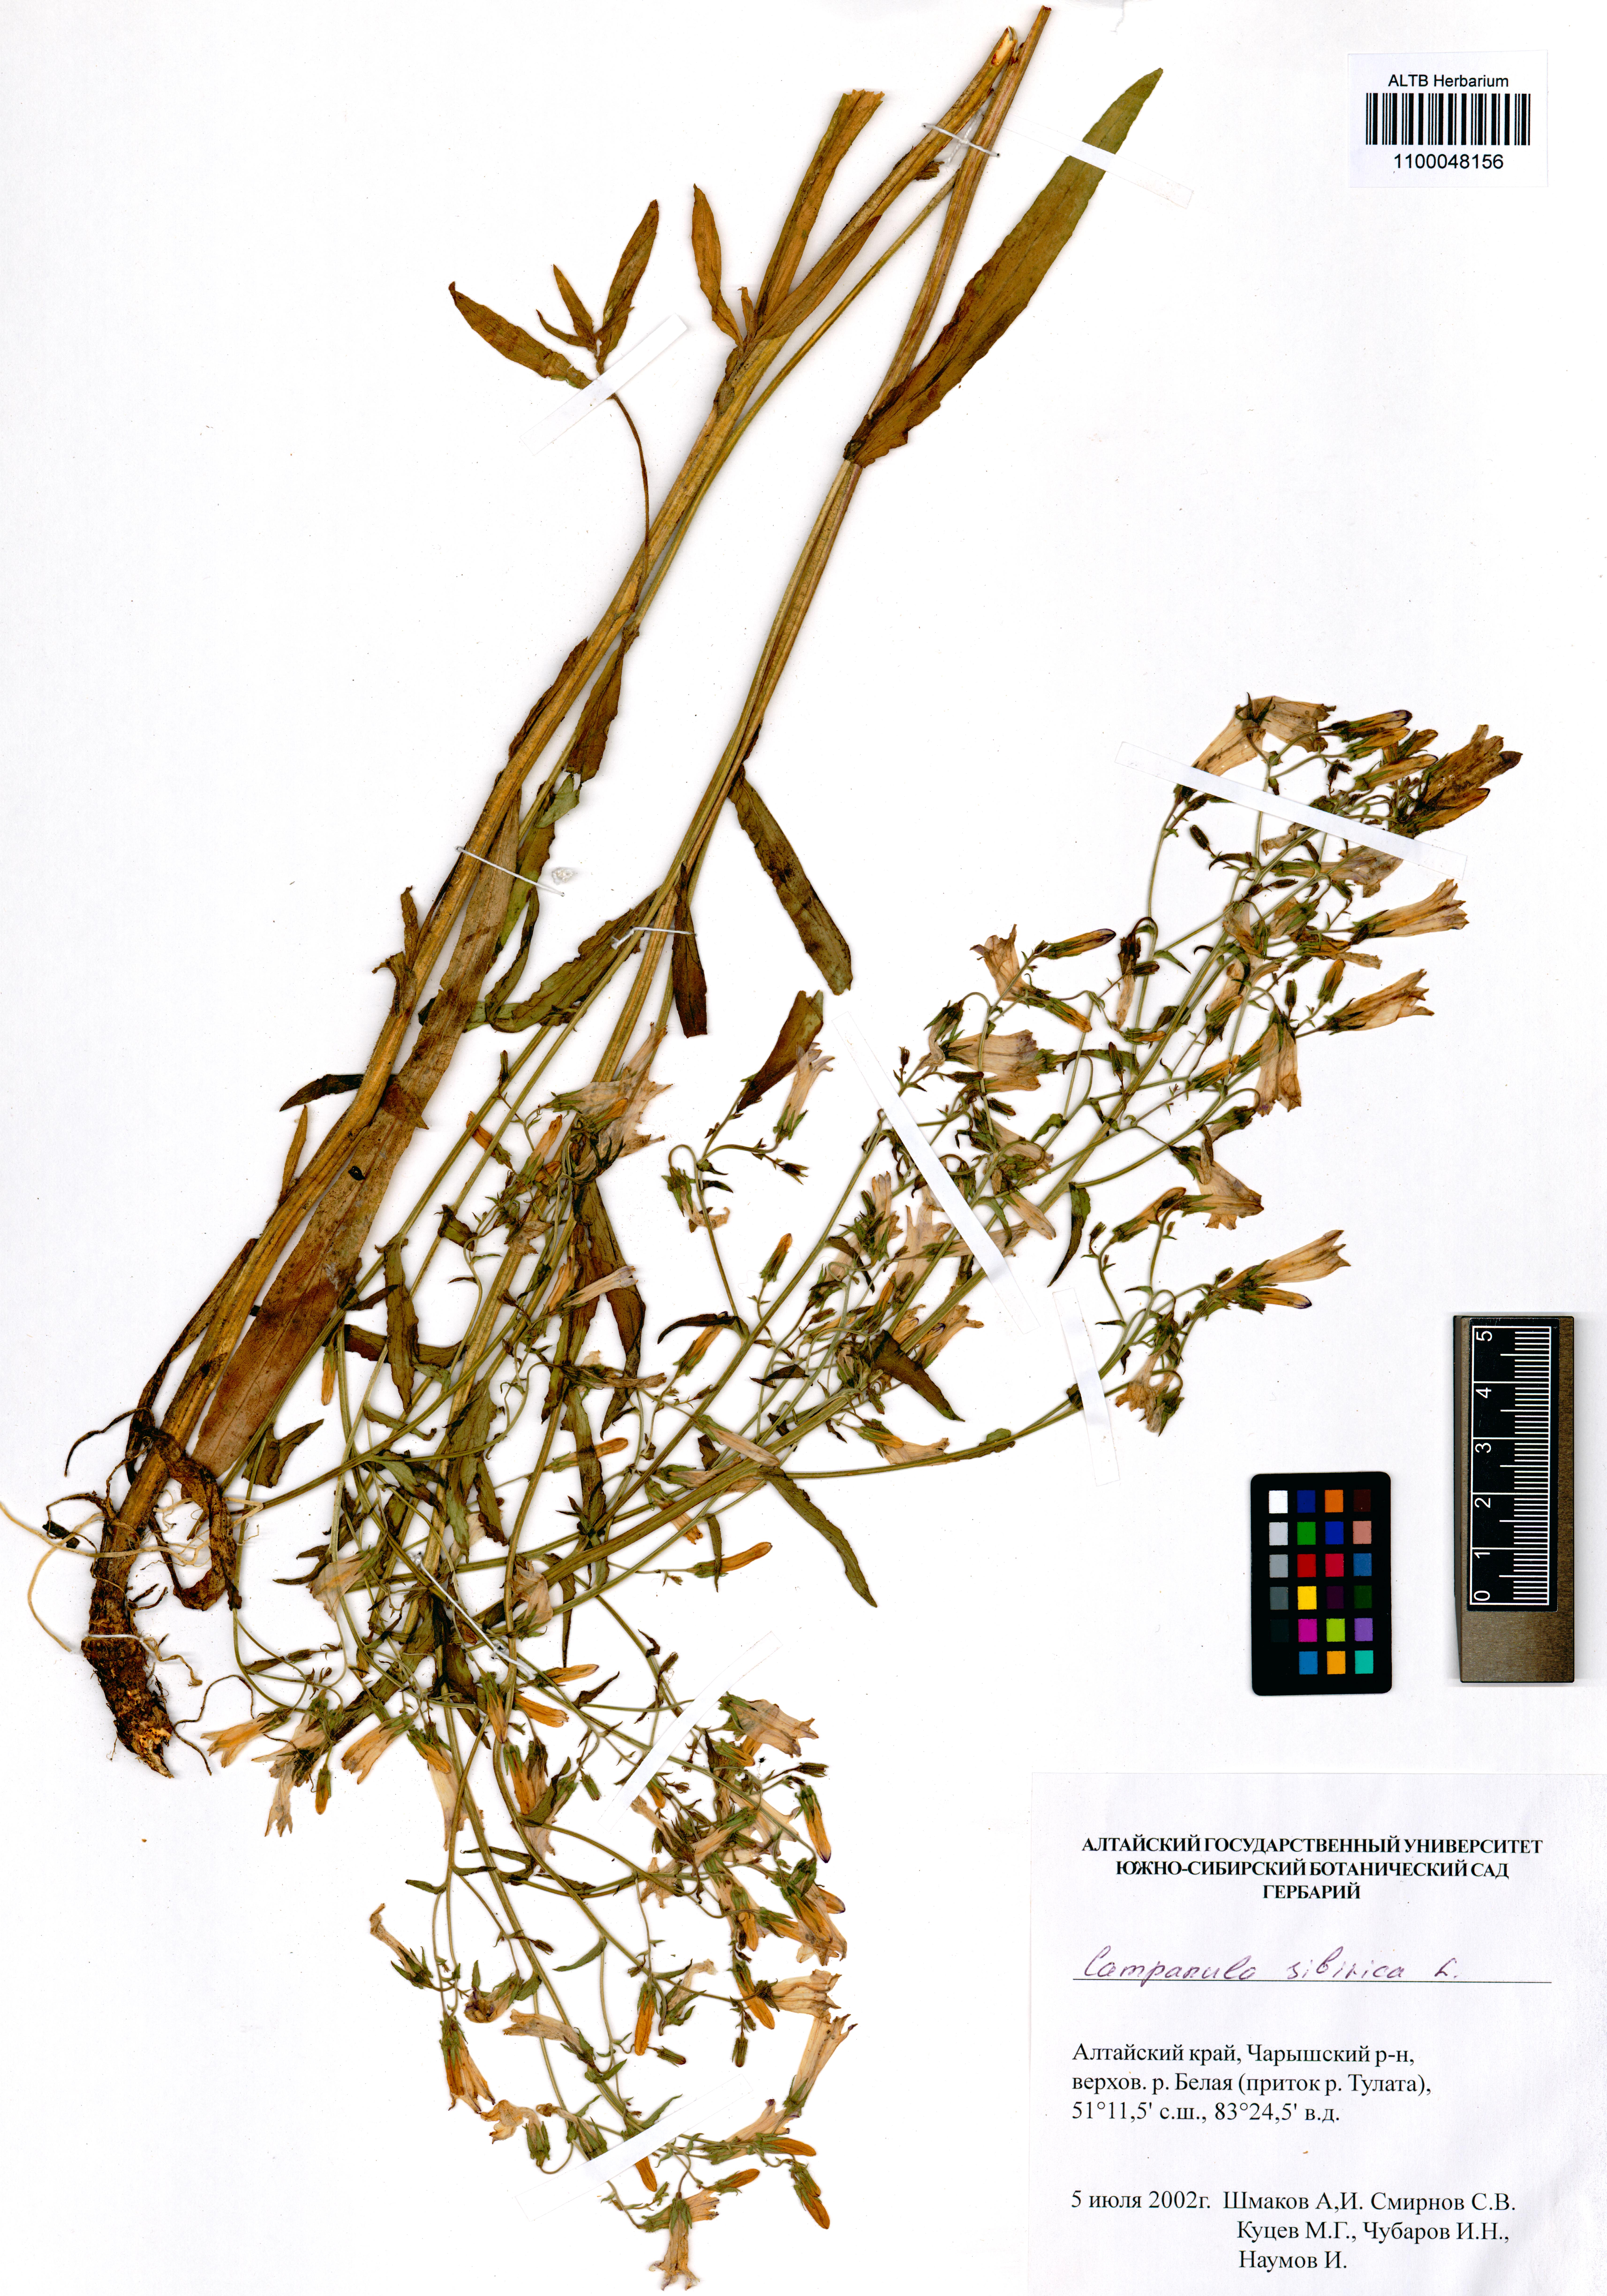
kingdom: Plantae
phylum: Tracheophyta
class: Magnoliopsida
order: Asterales
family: Campanulaceae
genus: Campanula
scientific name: Campanula sibirica
